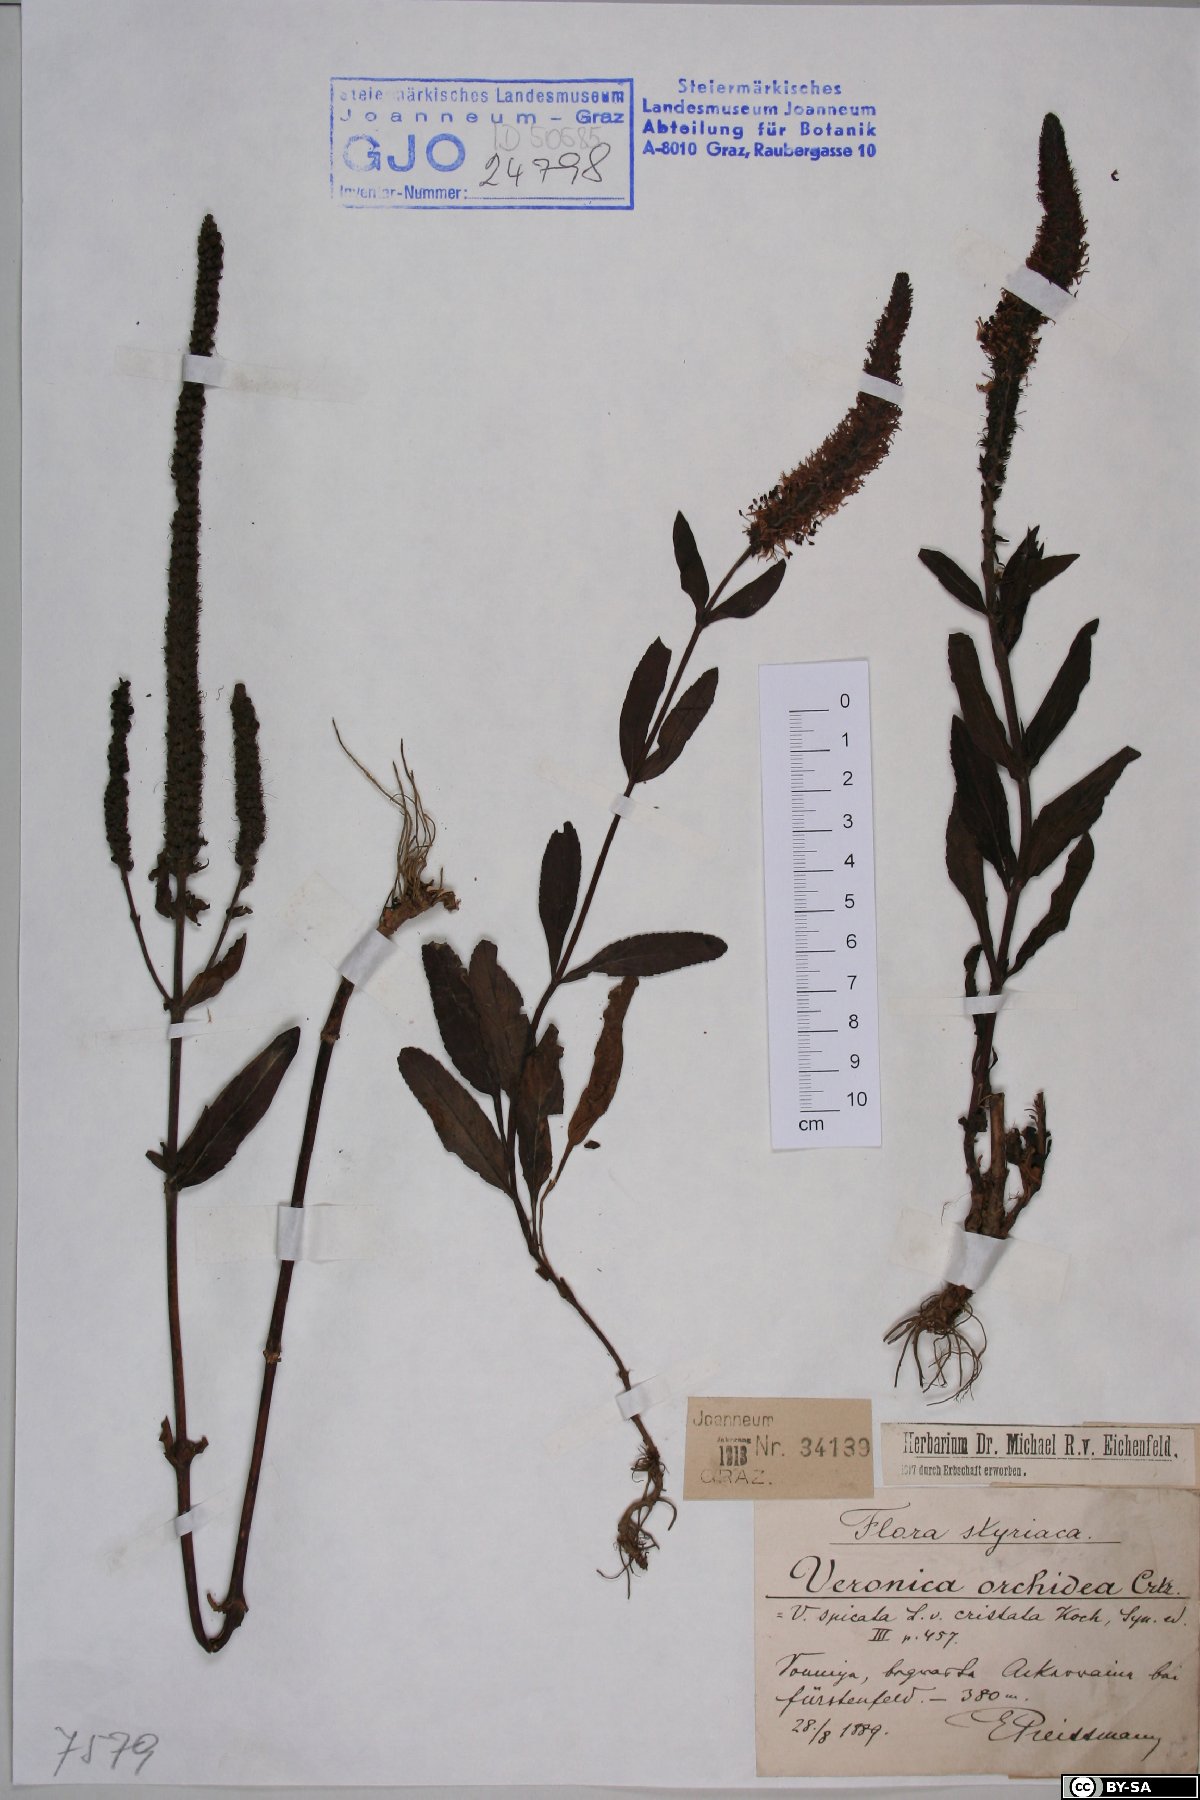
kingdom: Plantae
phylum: Tracheophyta
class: Magnoliopsida
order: Lamiales
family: Plantaginaceae
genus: Veronica
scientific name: Veronica orchidea
